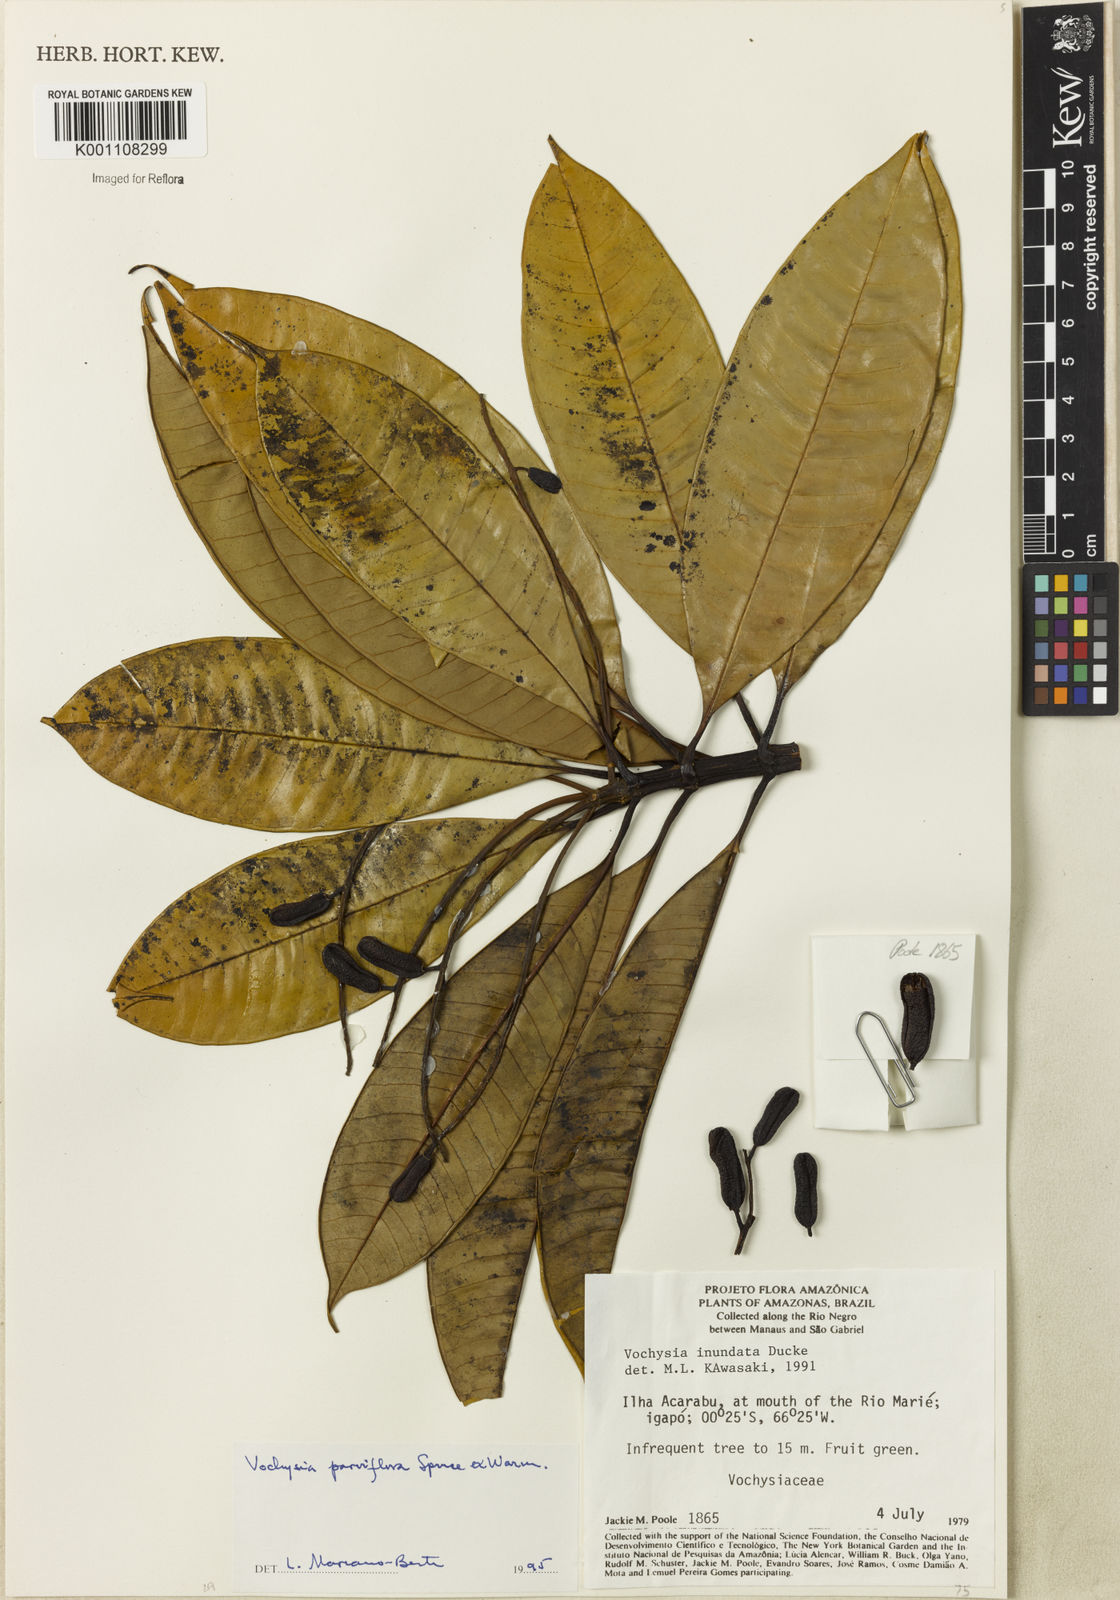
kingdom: Plantae
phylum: Tracheophyta
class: Magnoliopsida
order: Myrtales
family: Vochysiaceae
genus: Vochysia
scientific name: Vochysia parviflora
